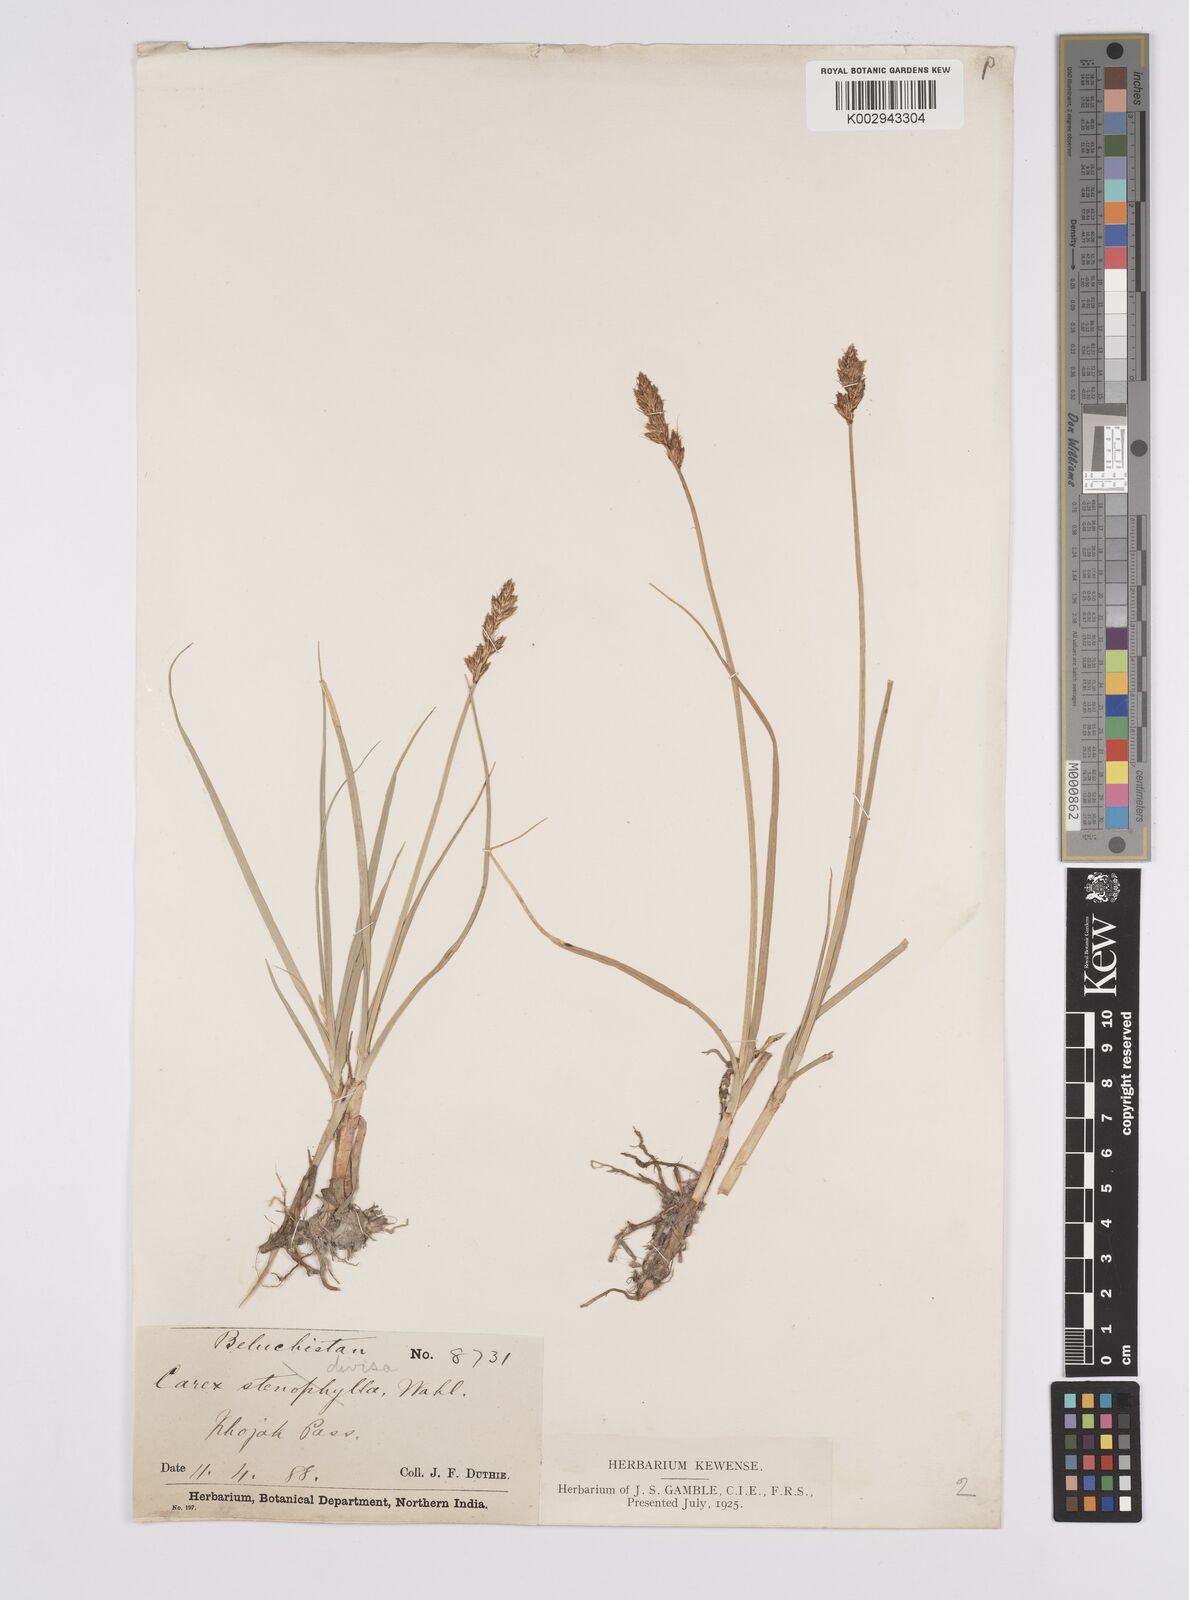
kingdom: Plantae
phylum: Tracheophyta
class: Liliopsida
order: Poales
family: Cyperaceae
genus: Carex
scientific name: Carex divisa
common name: Divided sedge
